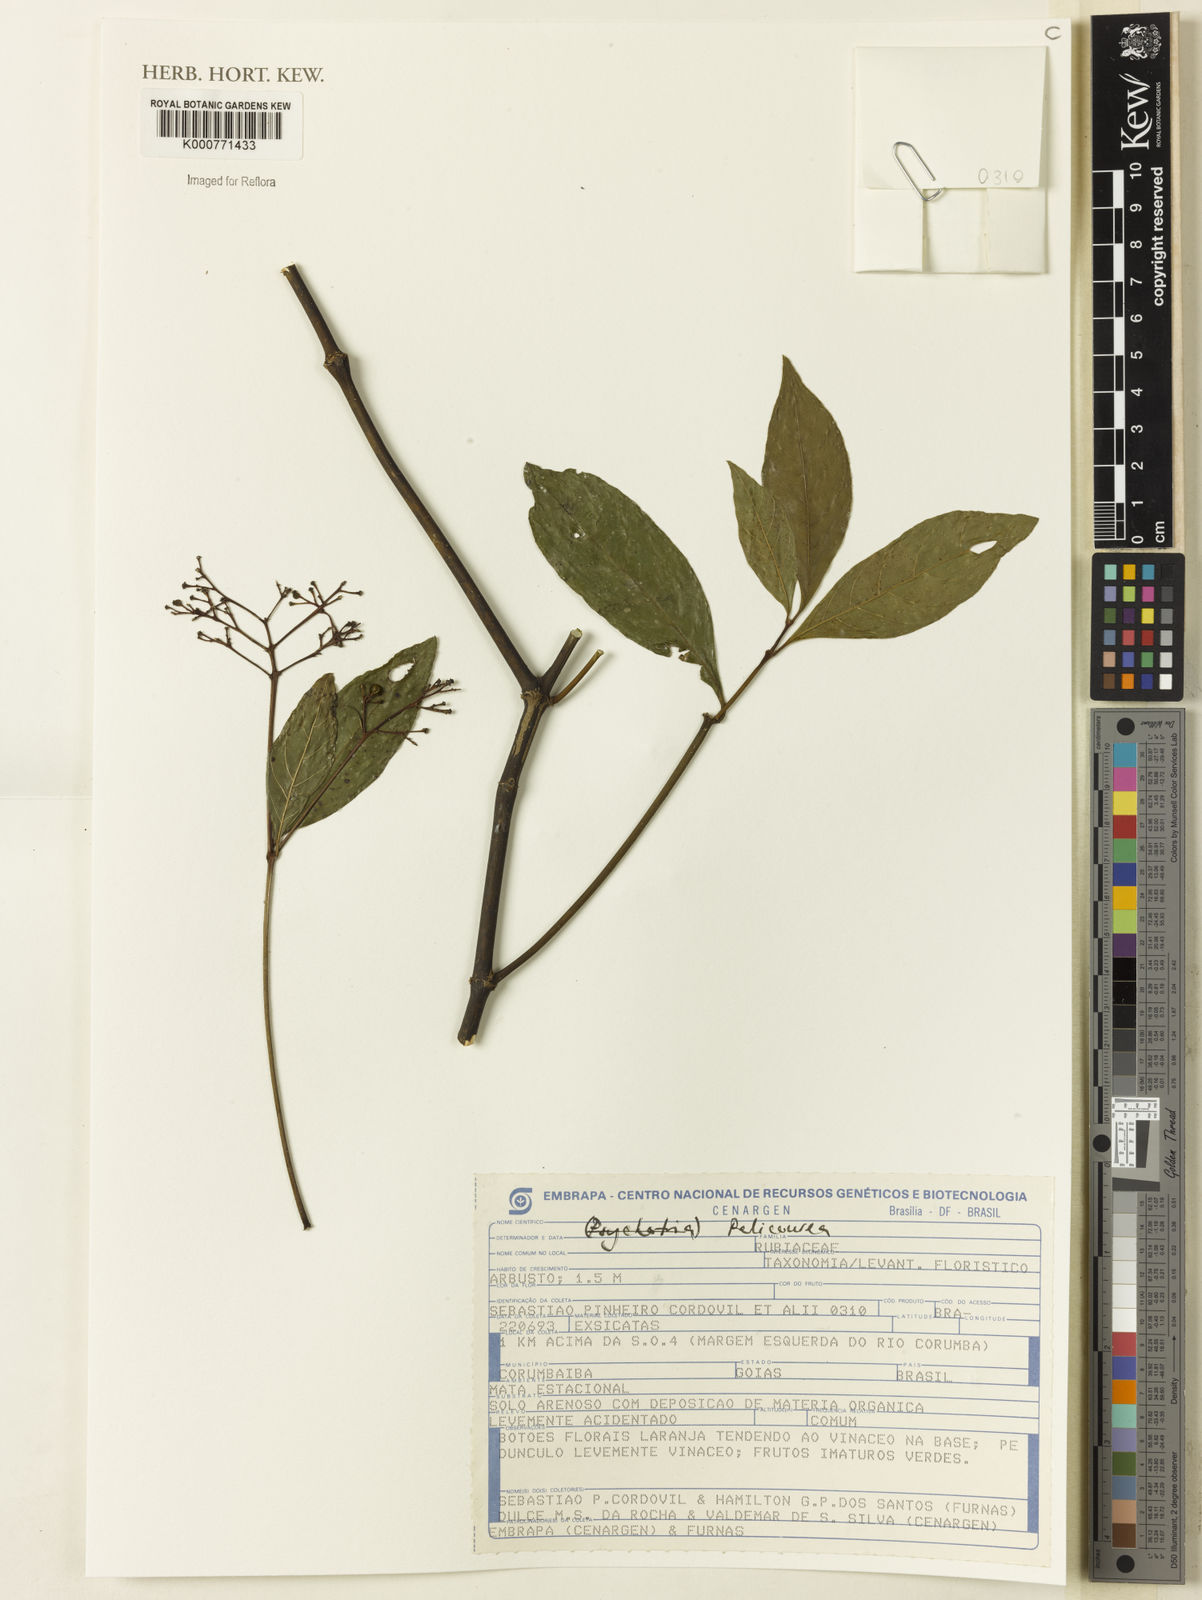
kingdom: Plantae
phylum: Tracheophyta
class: Magnoliopsida
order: Gentianales
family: Rubiaceae
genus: Psychotria
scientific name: Psychotria
